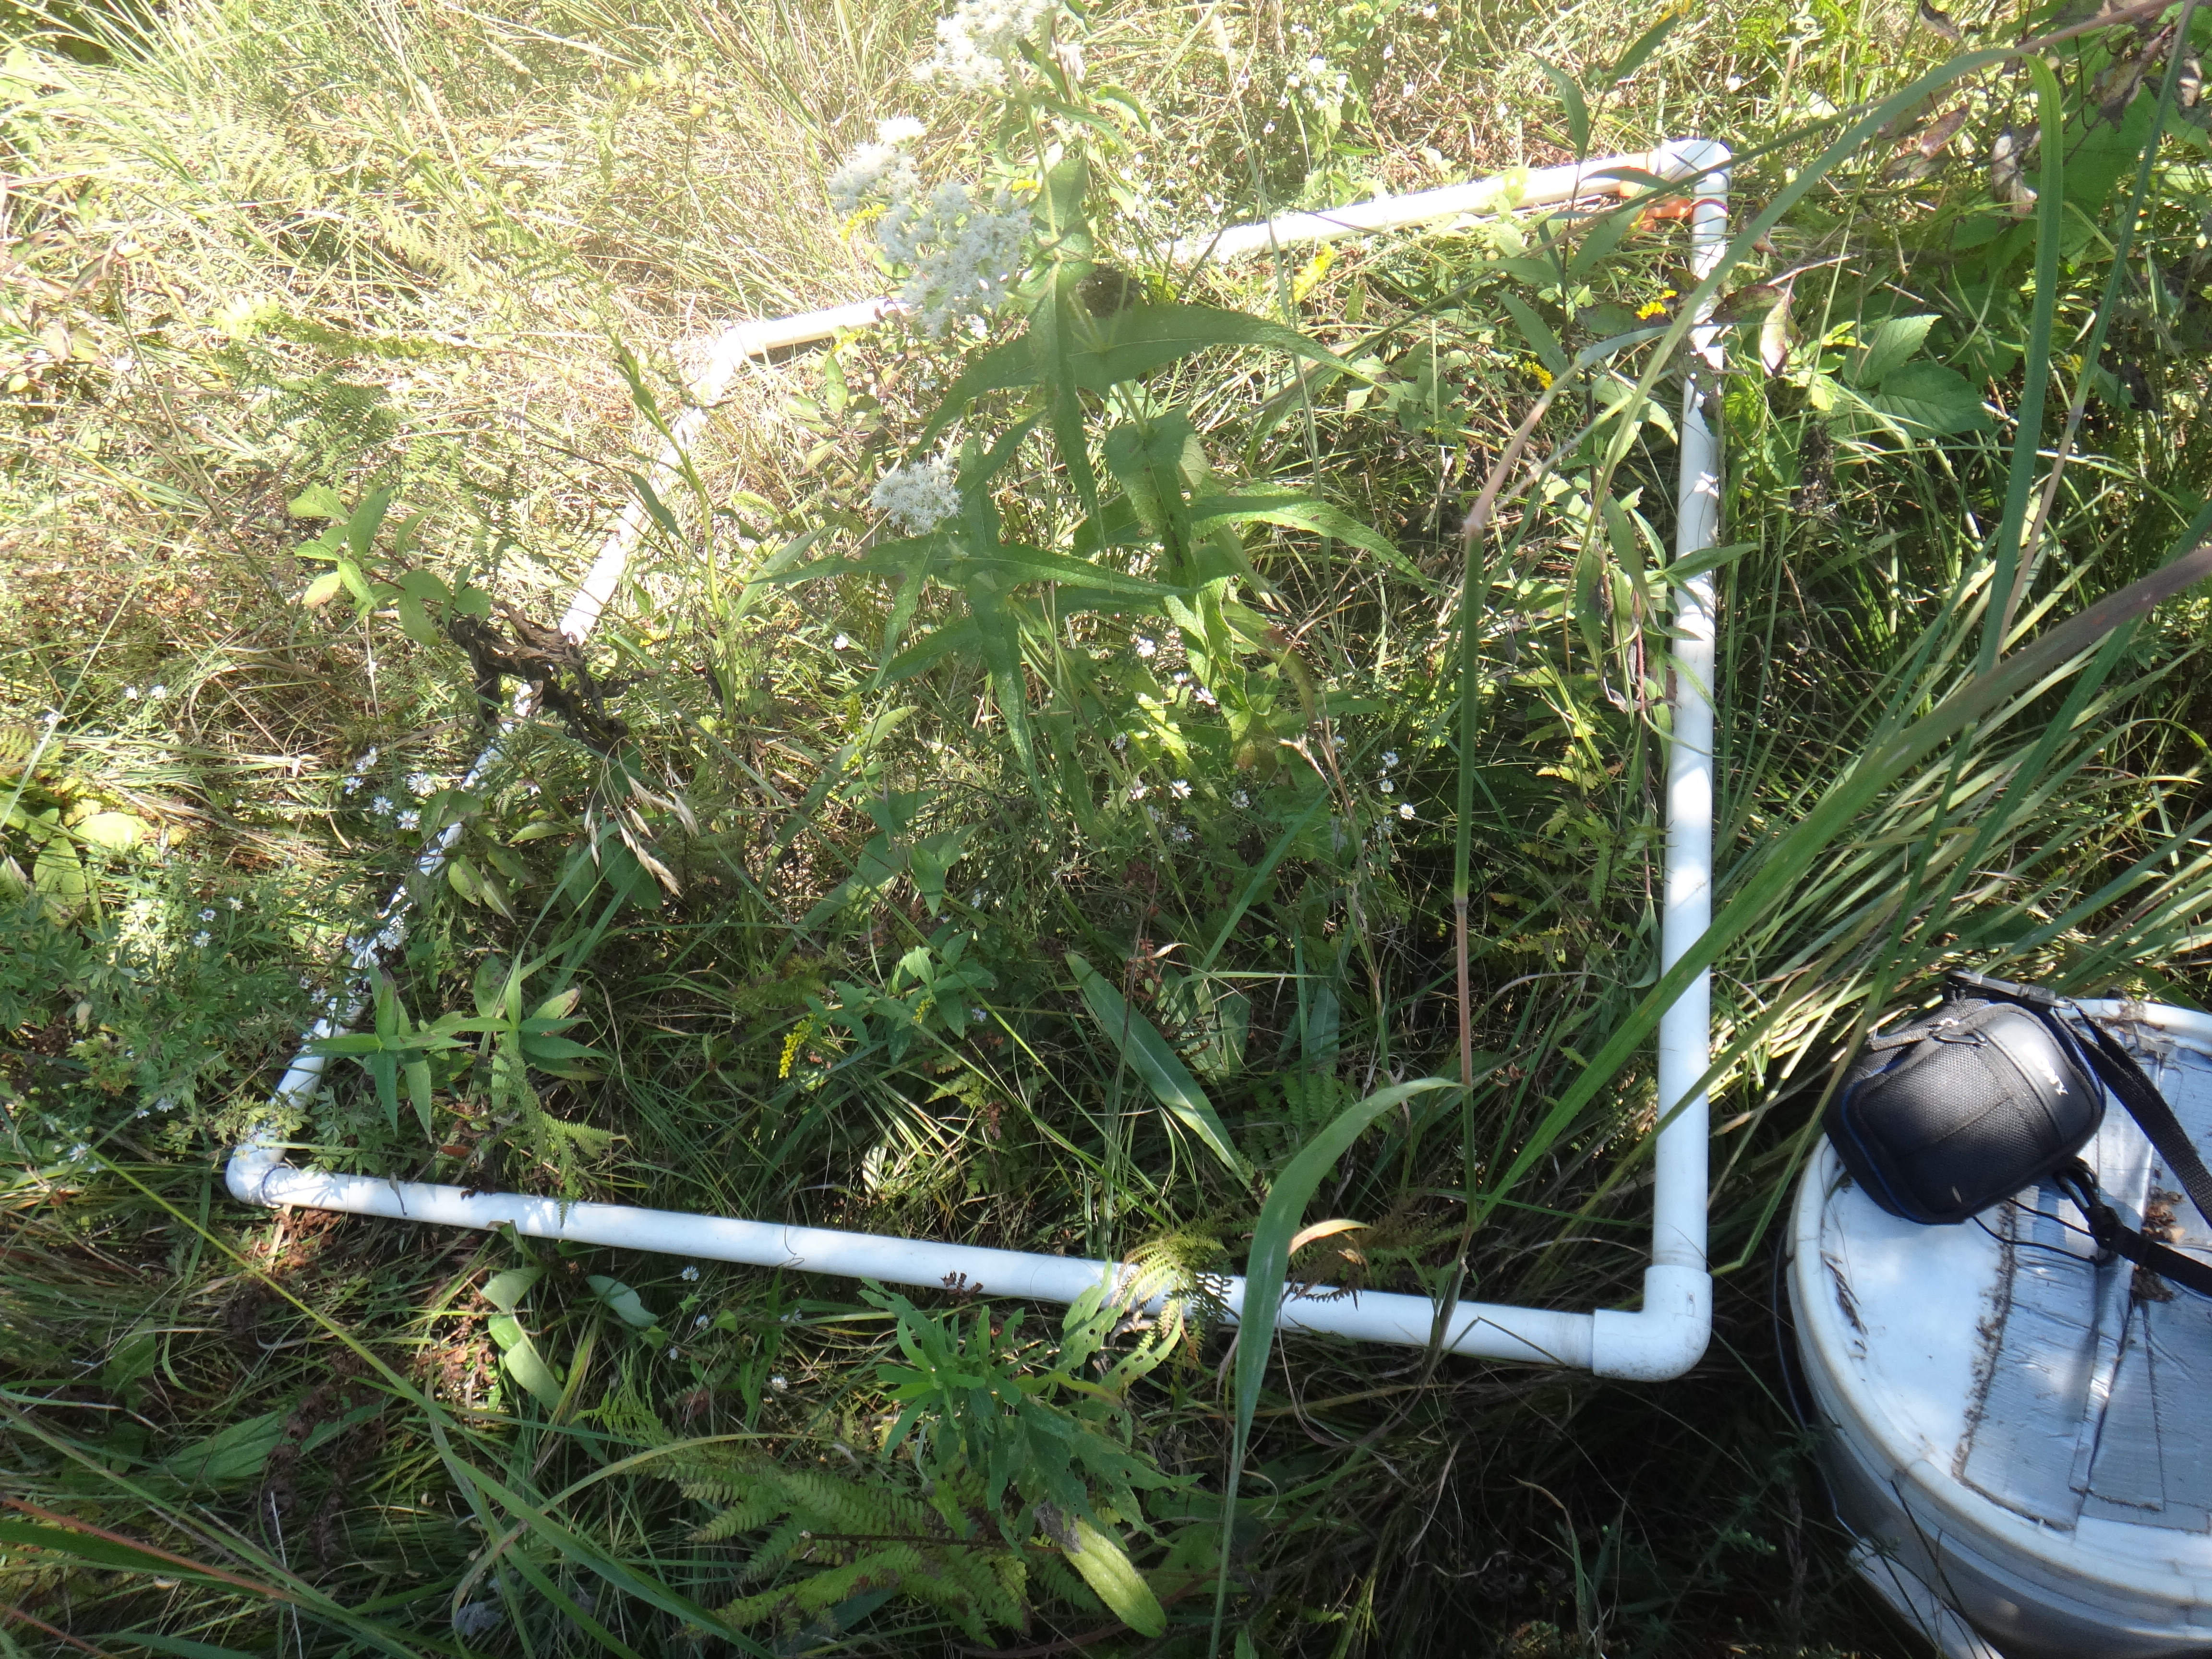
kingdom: Plantae
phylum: Tracheophyta
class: Liliopsida
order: Poales
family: Poaceae
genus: Elymus
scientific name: Elymus violaceus
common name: Arctic wheatgrass
